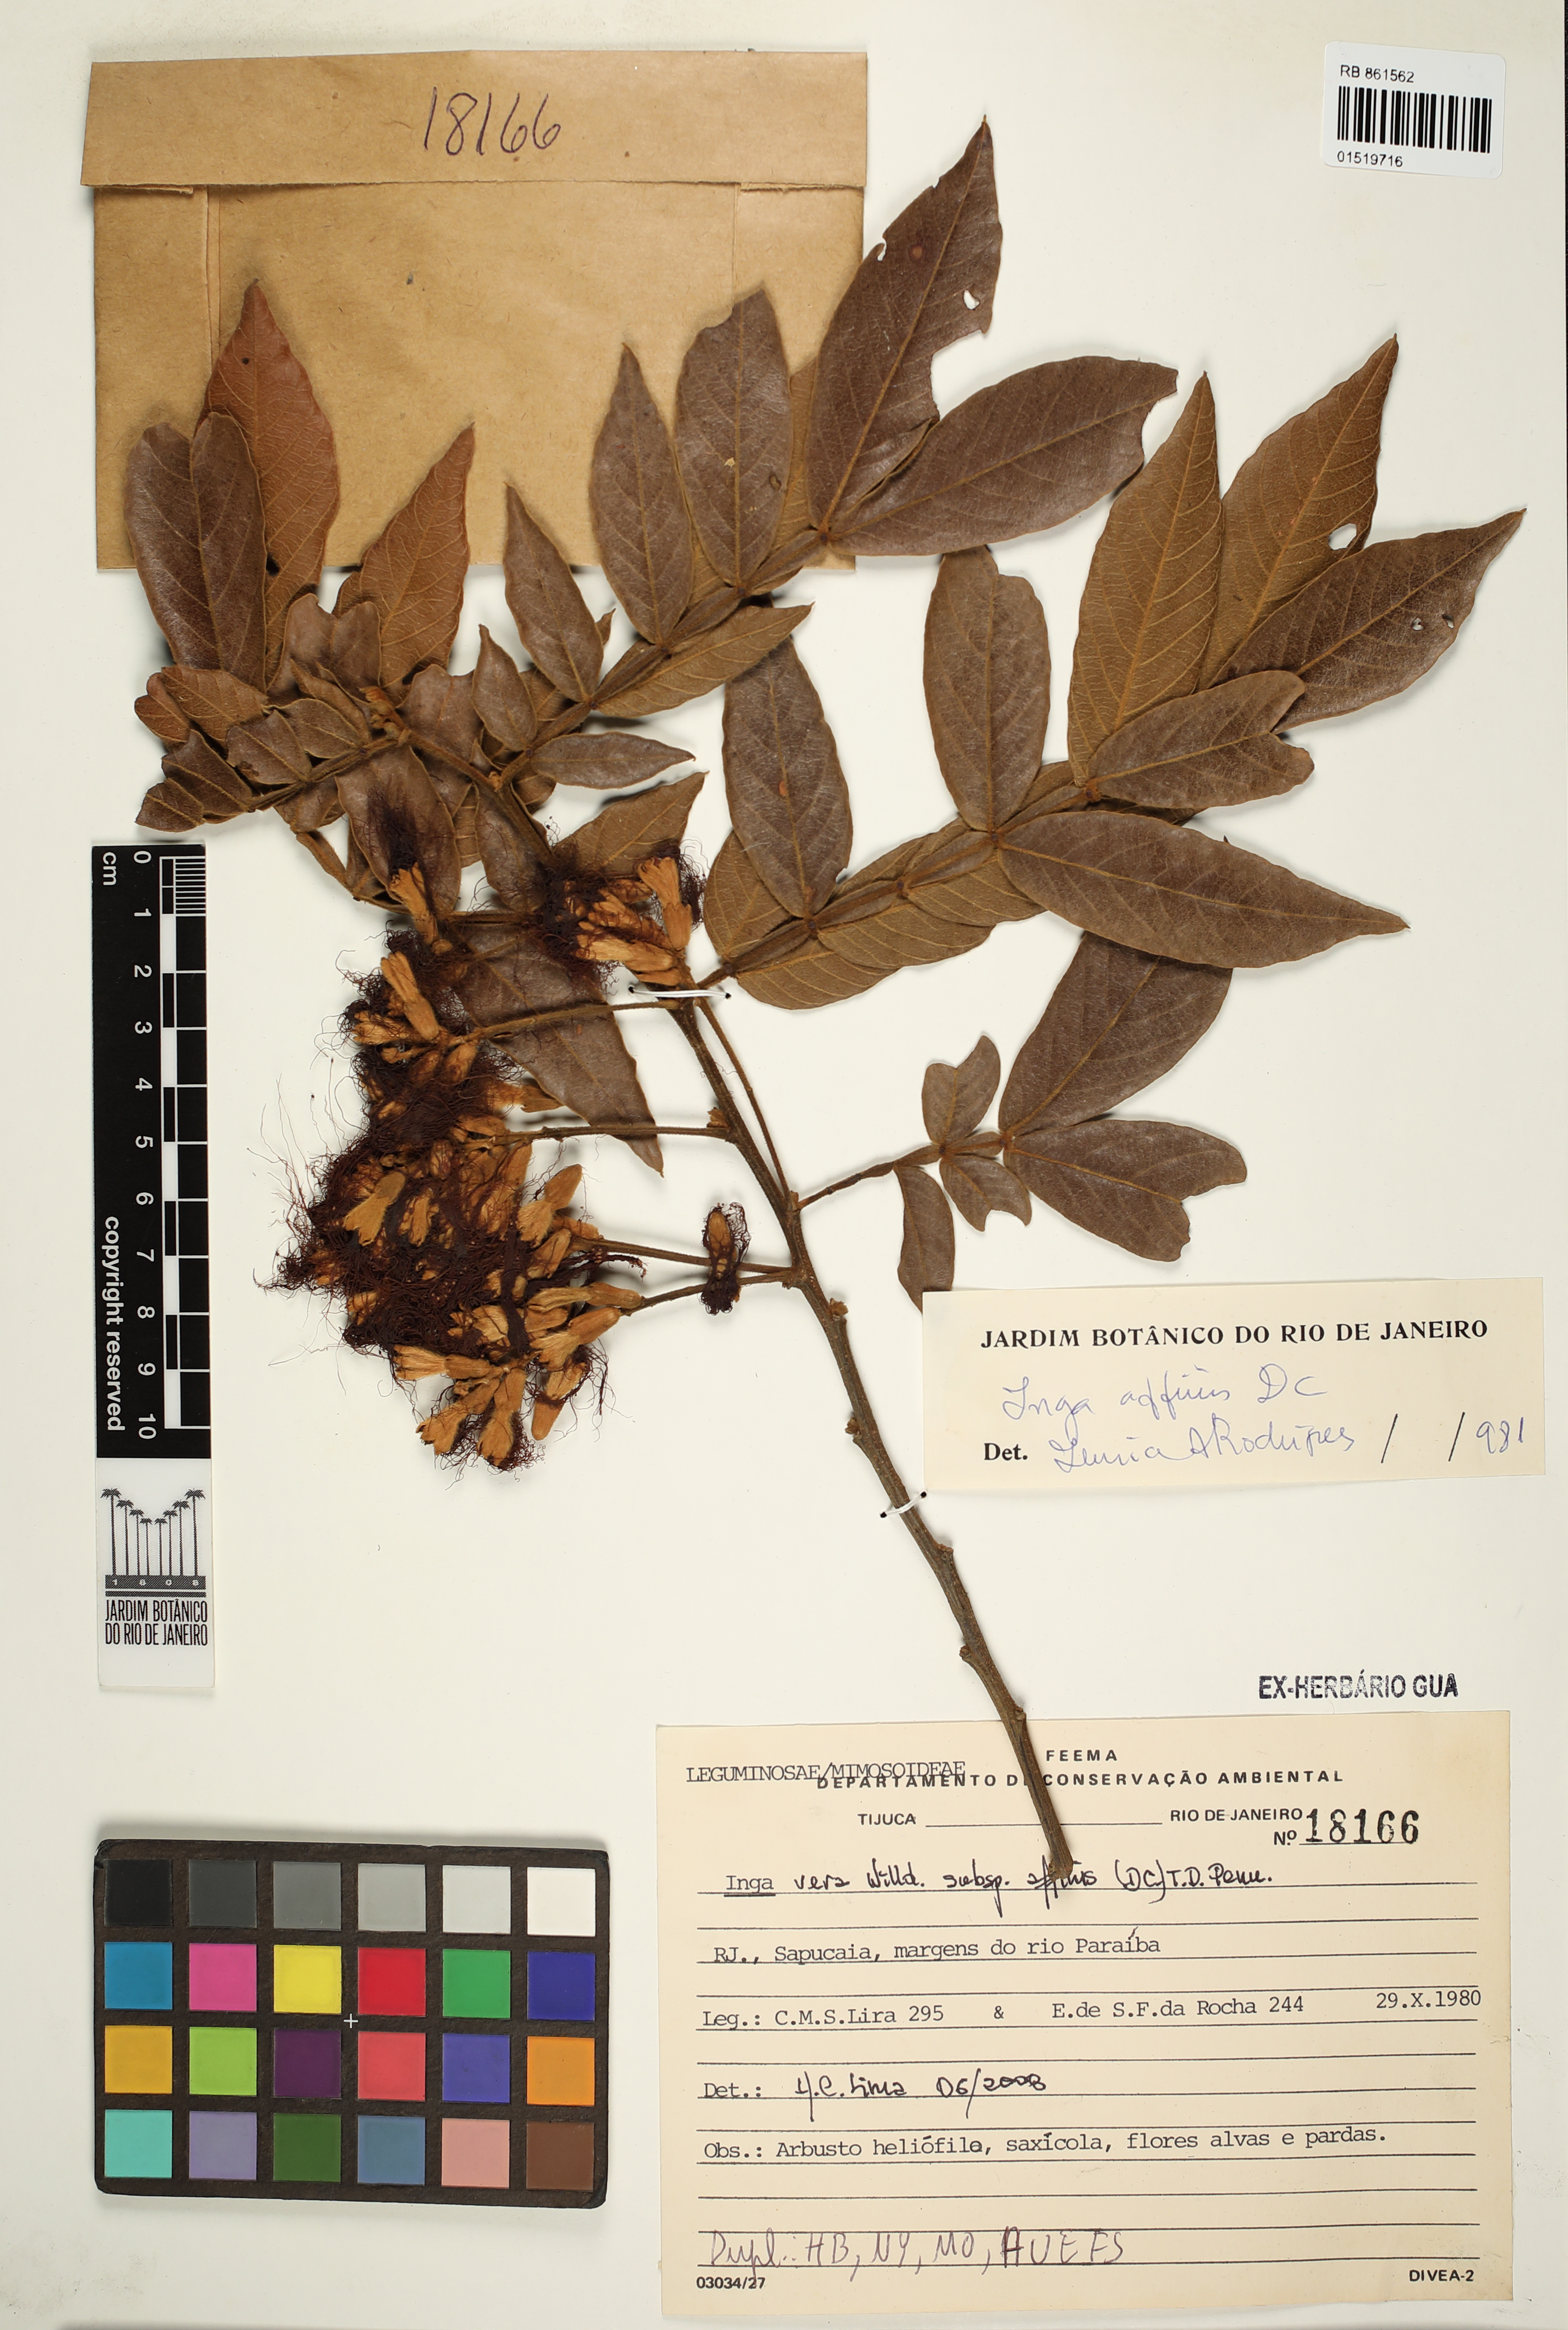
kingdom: Plantae
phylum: Tracheophyta
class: Magnoliopsida
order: Fabales
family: Fabaceae
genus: Inga
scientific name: Inga affinis
